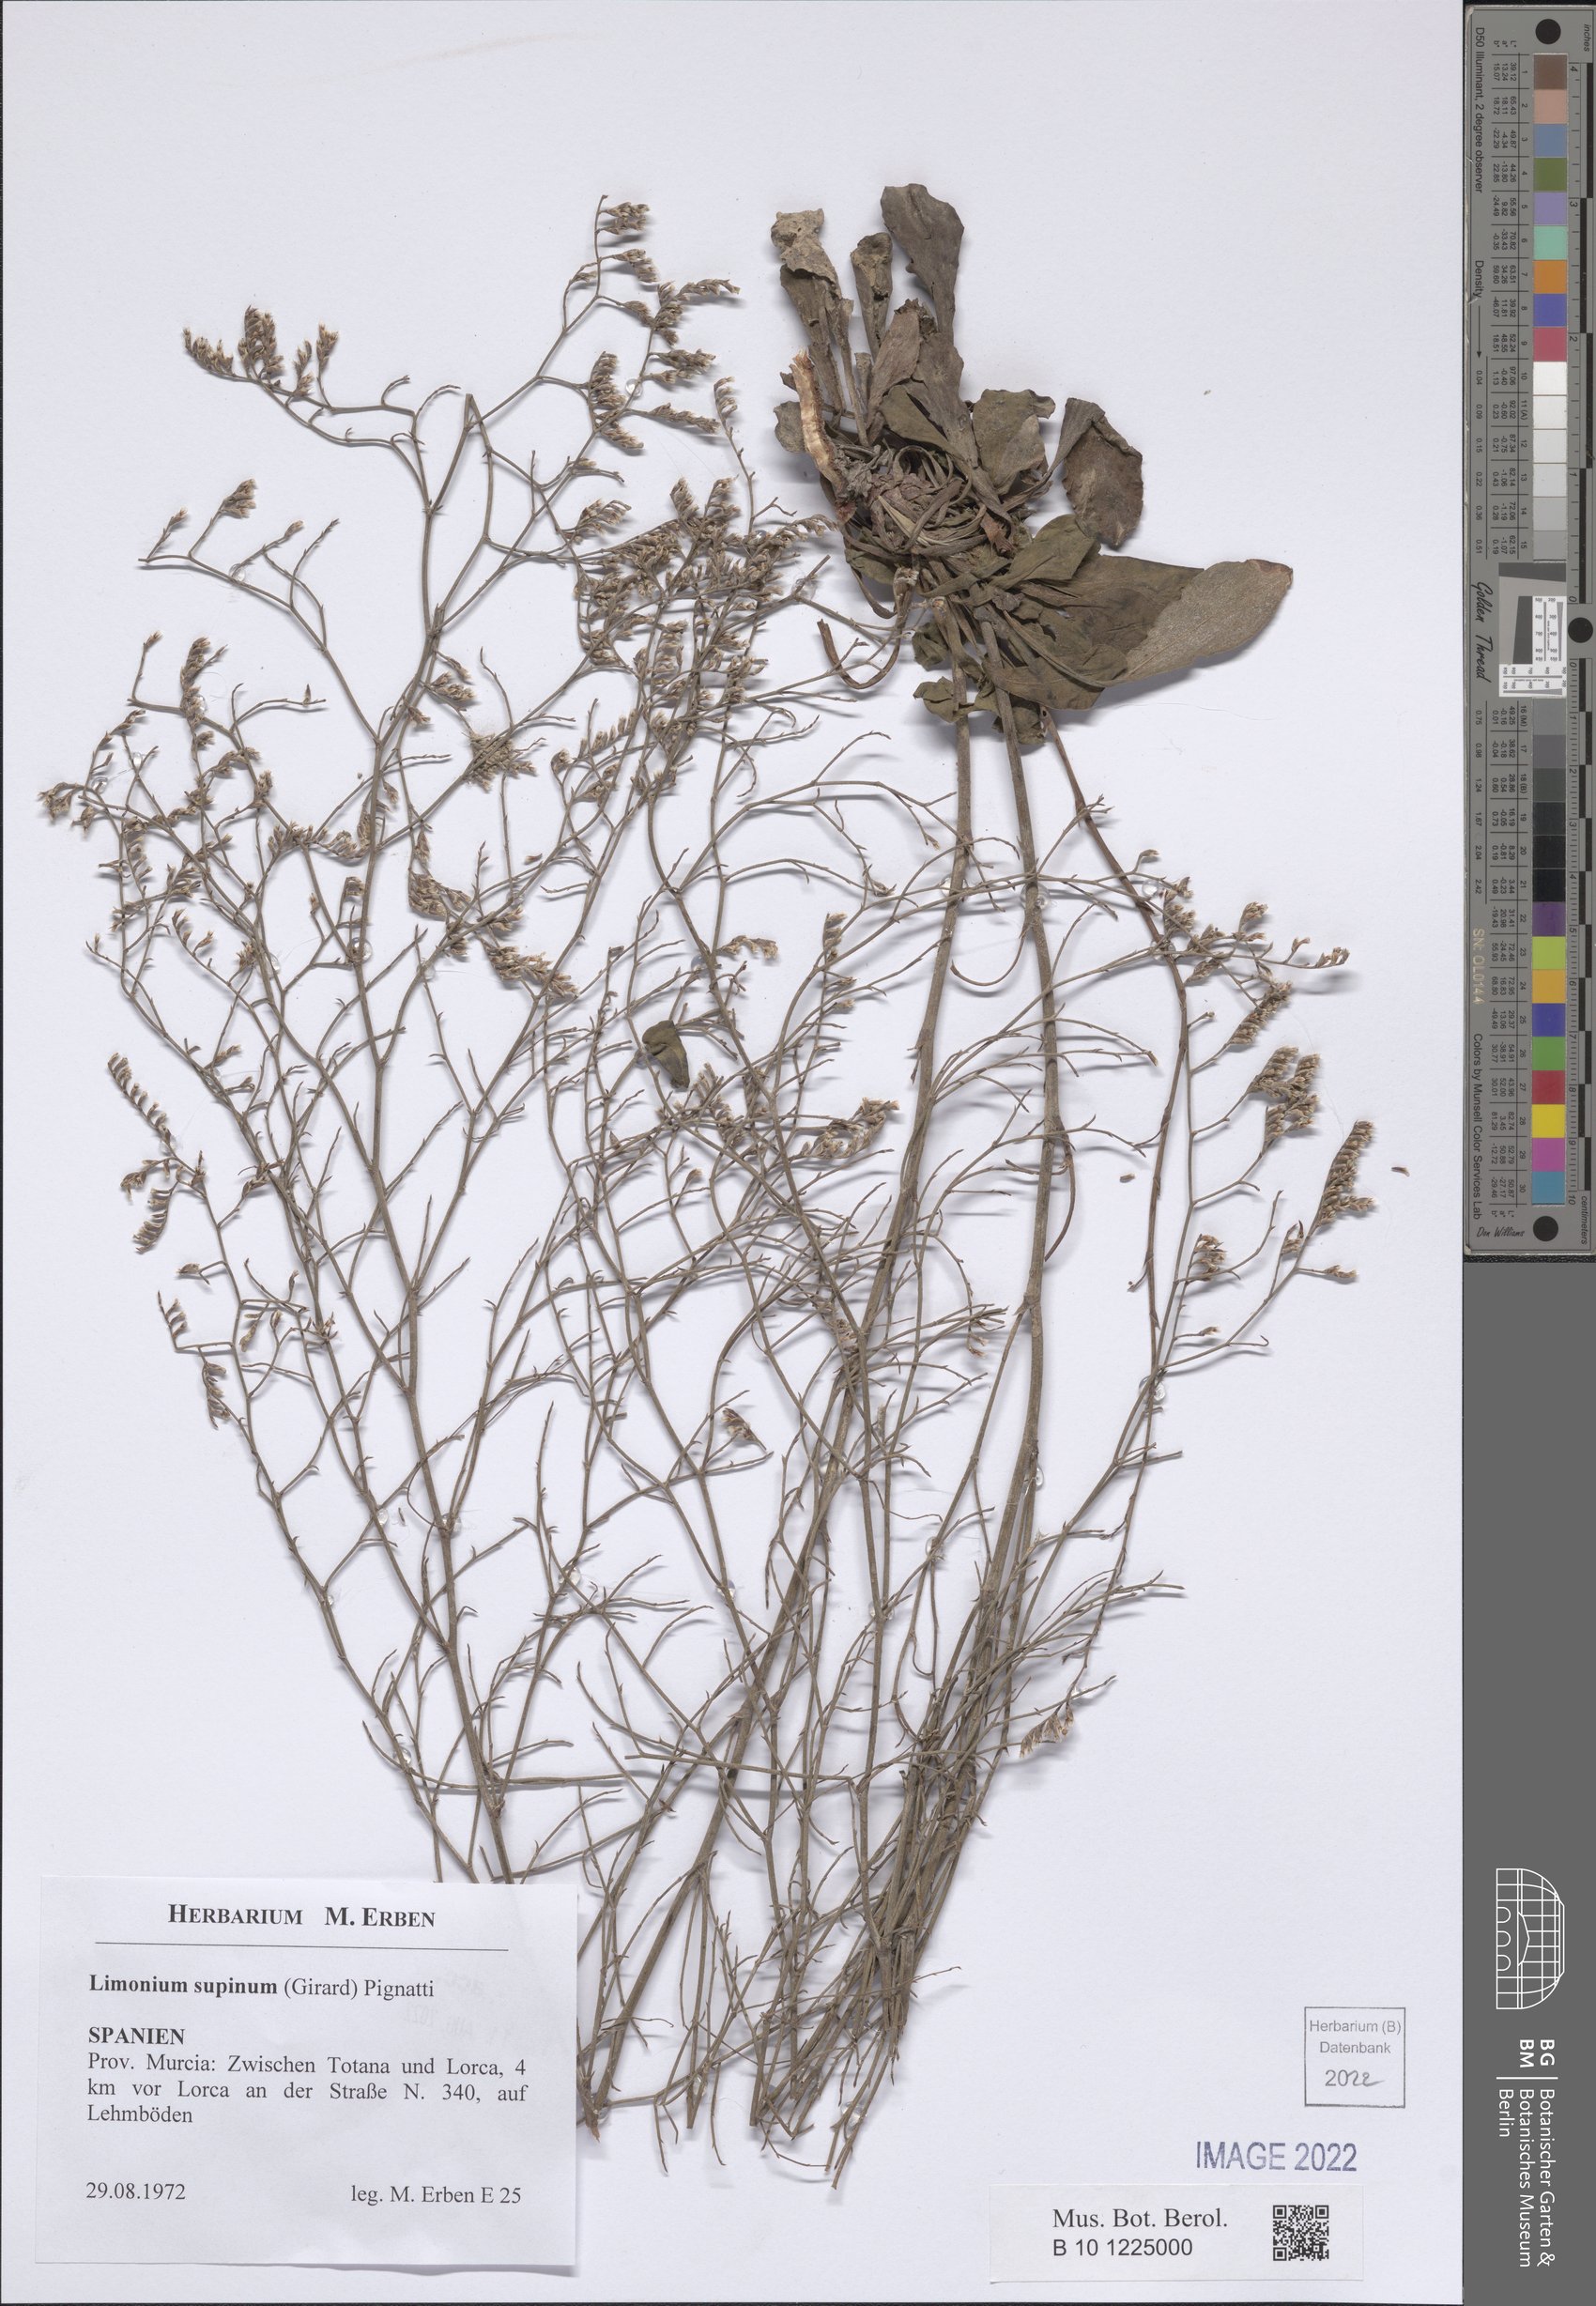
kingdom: Plantae
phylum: Tracheophyta
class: Magnoliopsida
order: Caryophyllales
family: Plumbaginaceae
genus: Limonium
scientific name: Limonium supinum
